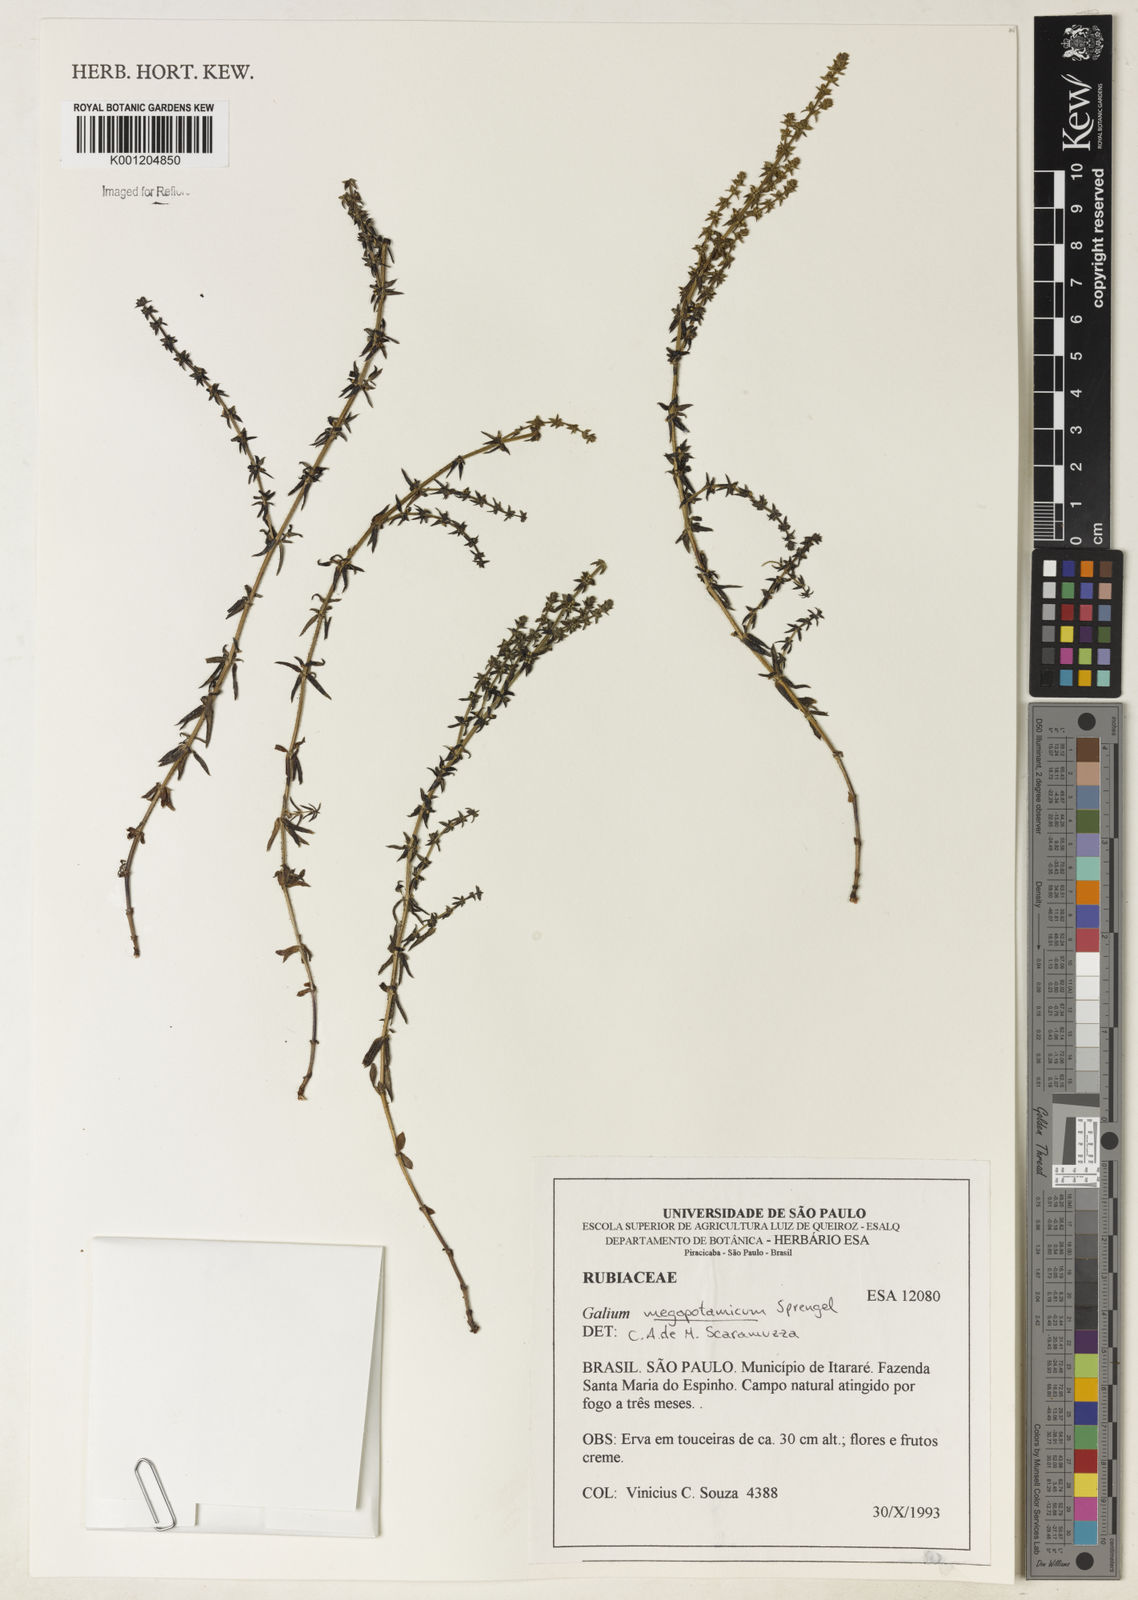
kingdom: Plantae
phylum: Tracheophyta
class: Magnoliopsida
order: Gentianales
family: Rubiaceae
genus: Galium
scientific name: Galium megapotamicum
